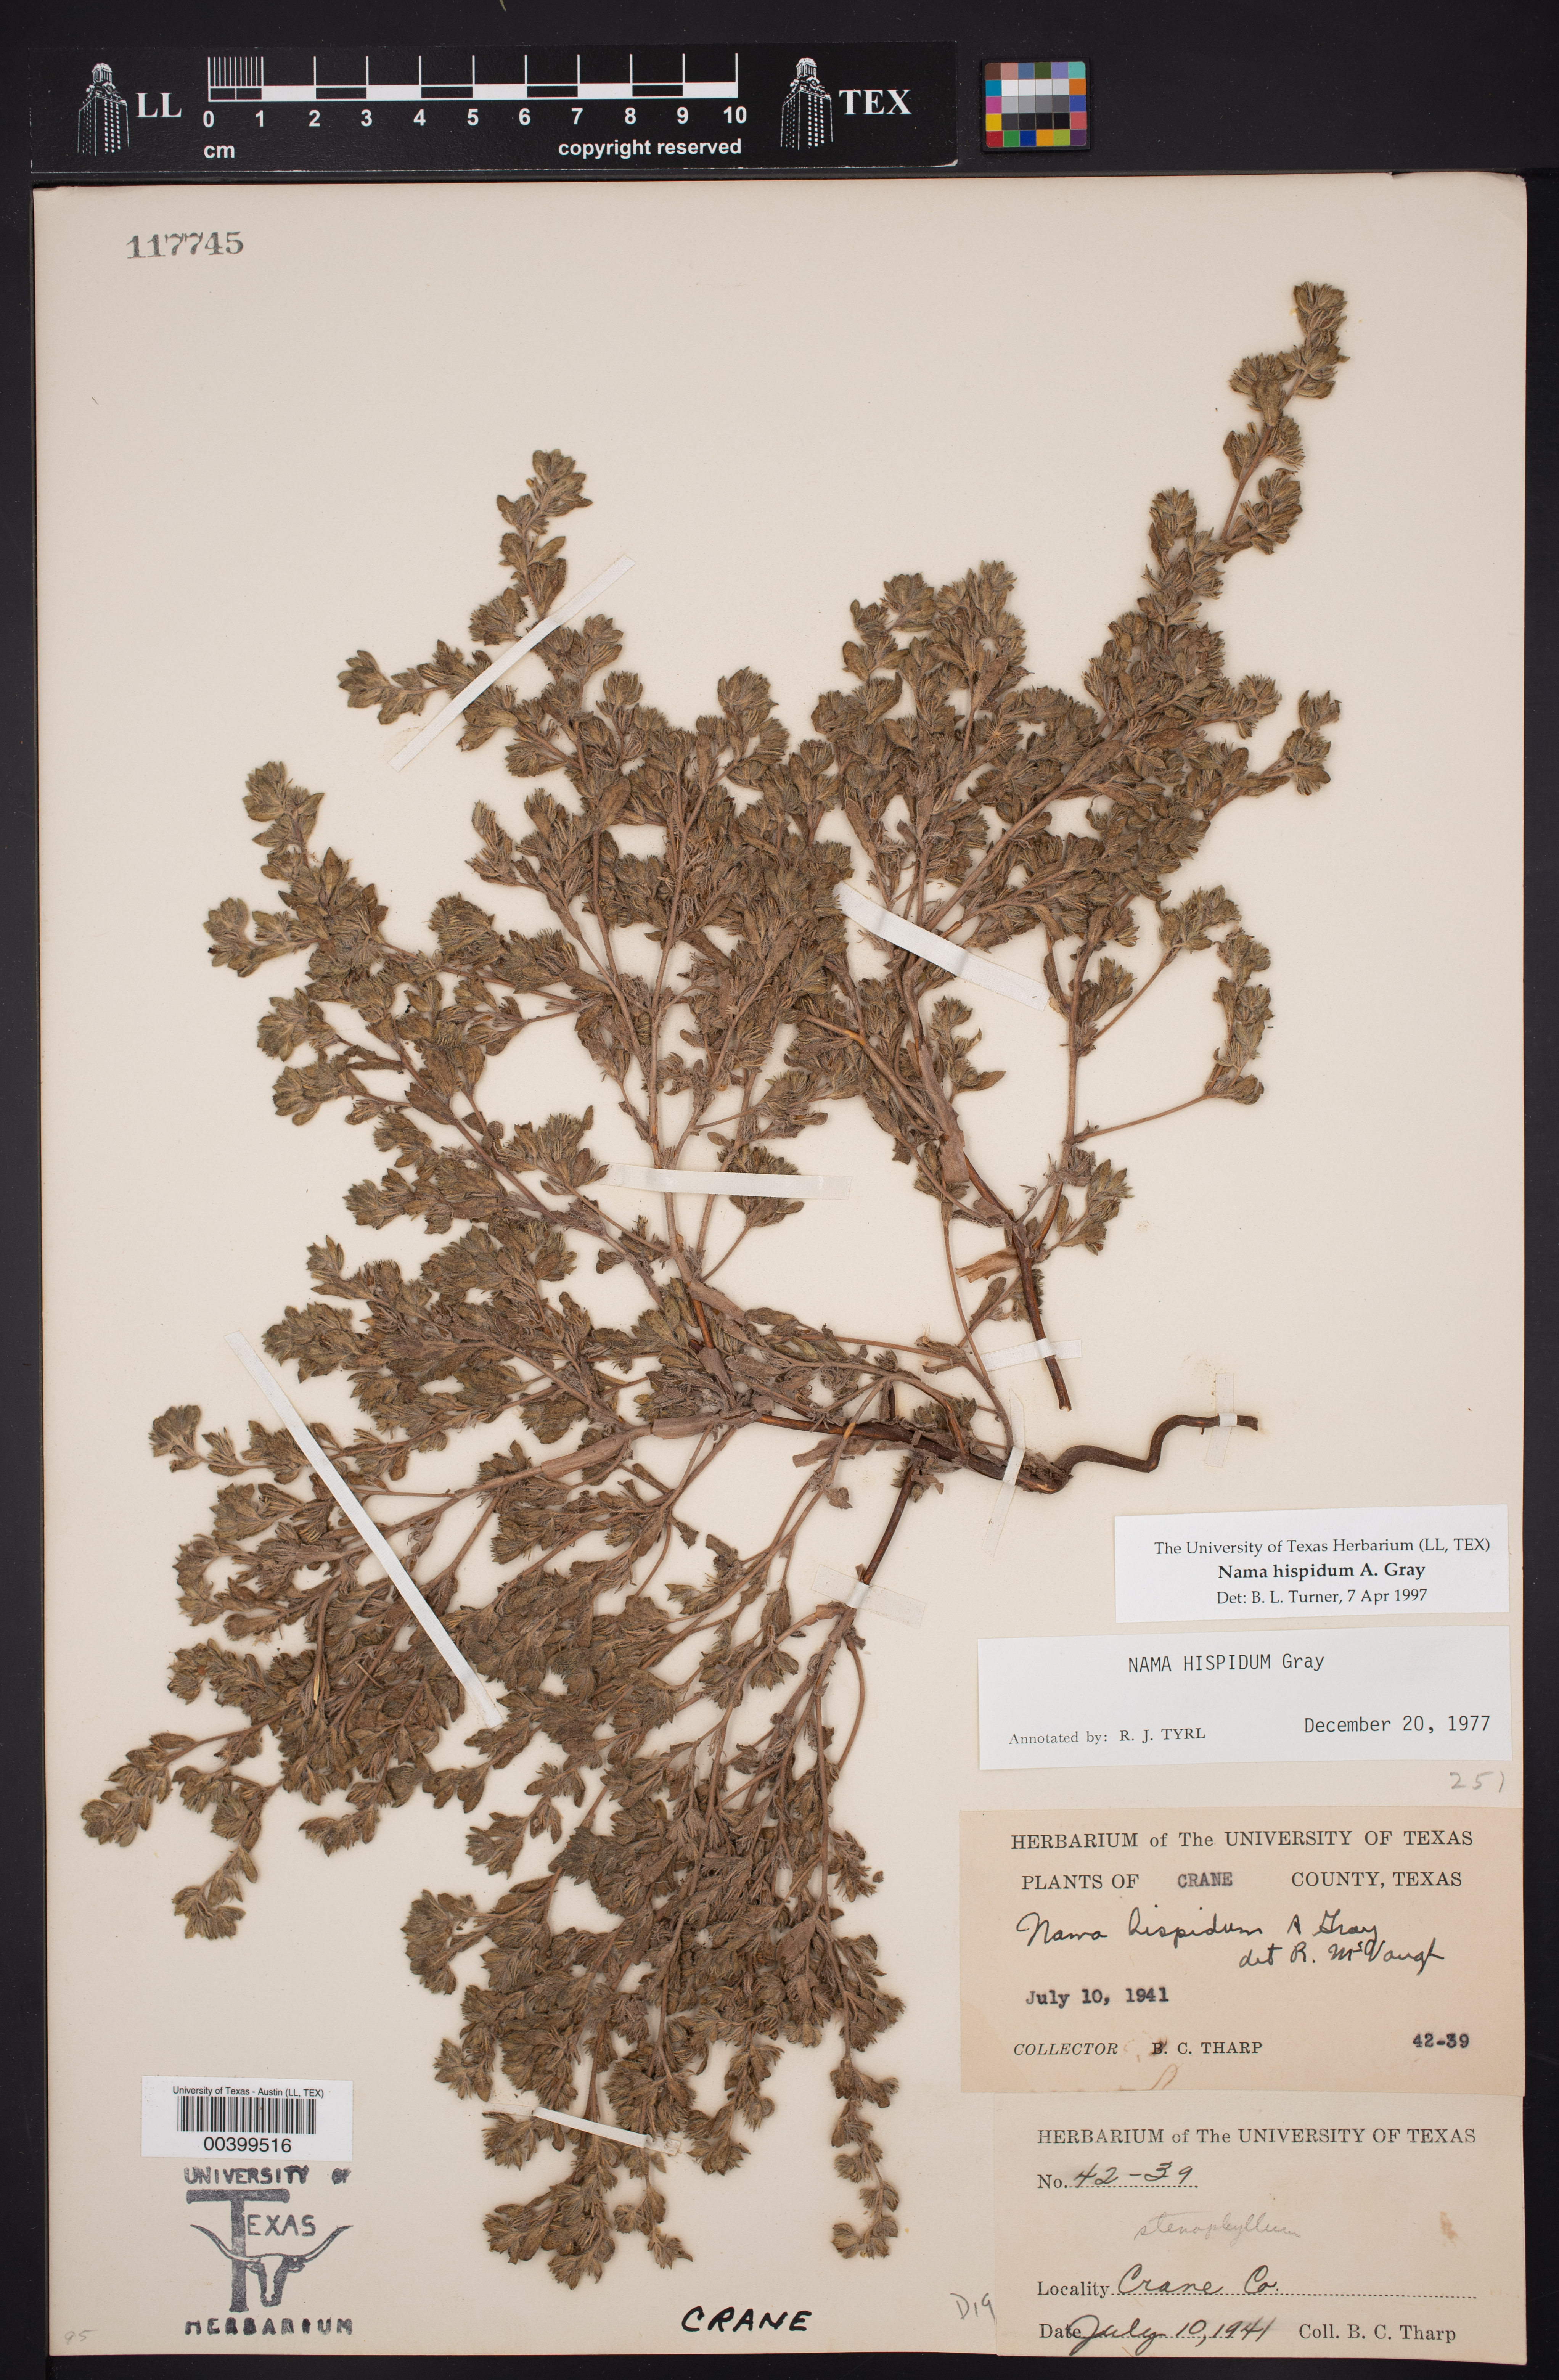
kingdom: Plantae
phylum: Tracheophyta
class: Magnoliopsida
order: Boraginales
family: Namaceae
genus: Nama
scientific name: Nama hispida
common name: Bristly nama
